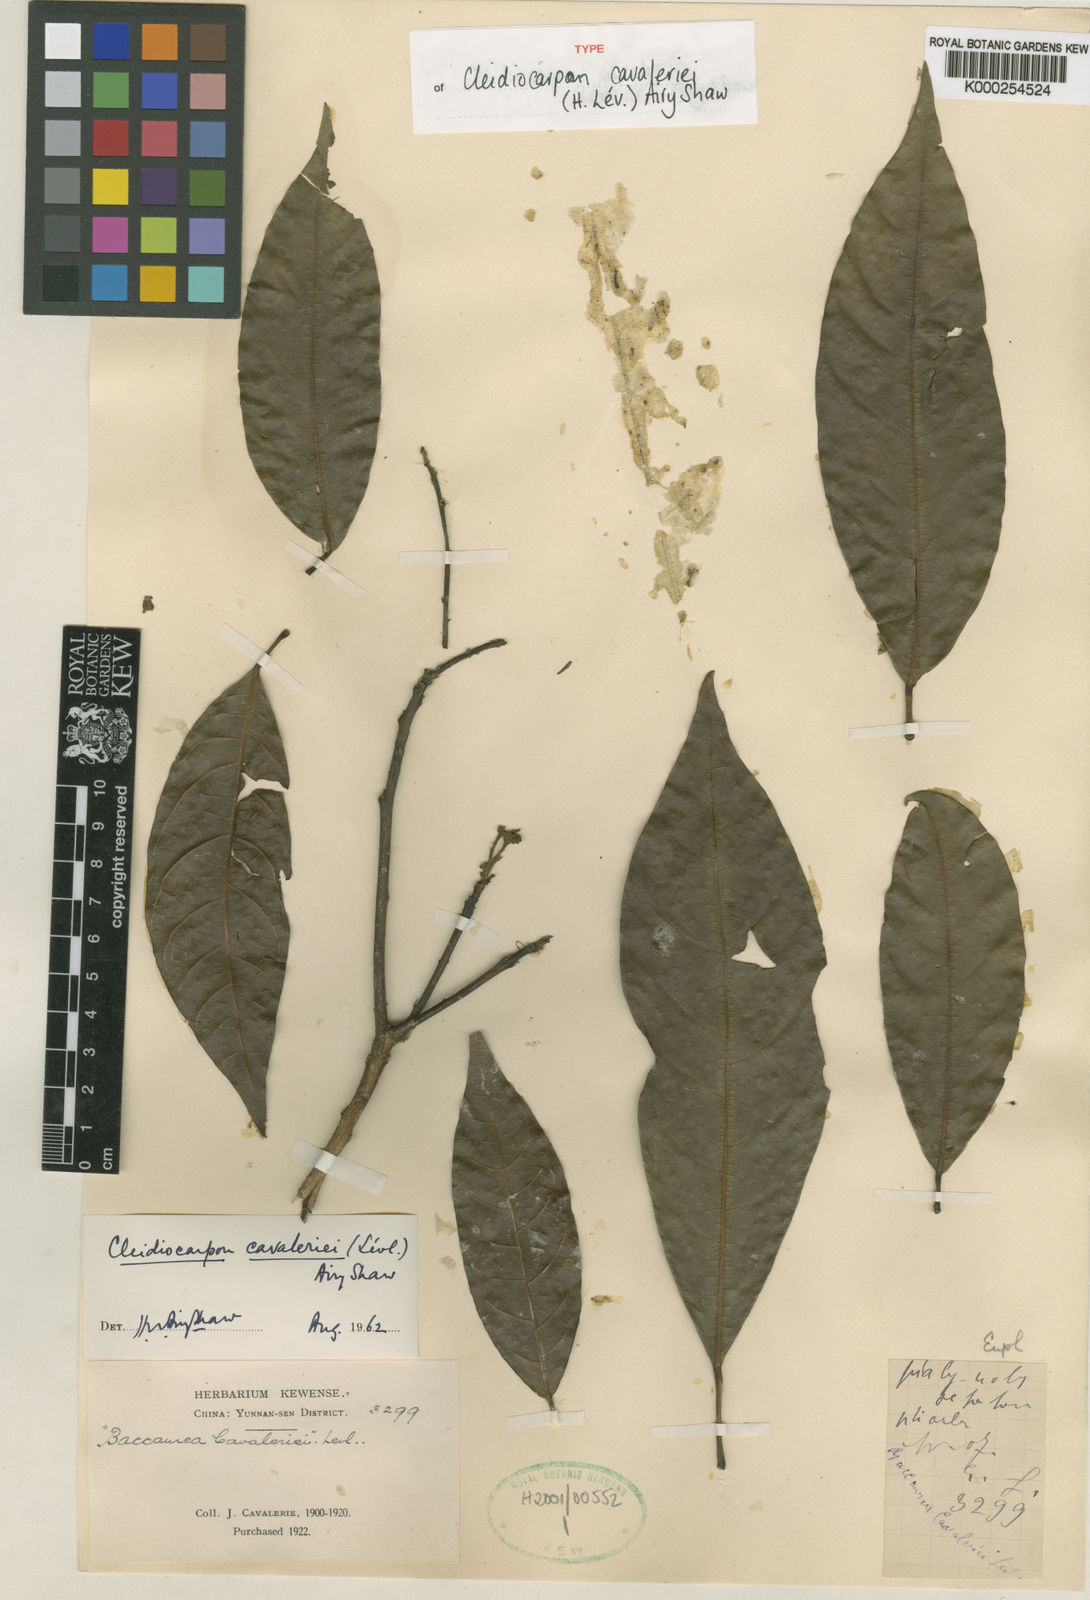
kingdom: Plantae
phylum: Tracheophyta
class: Magnoliopsida
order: Malpighiales
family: Euphorbiaceae
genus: Cleidiocarpon
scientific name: Cleidiocarpon
